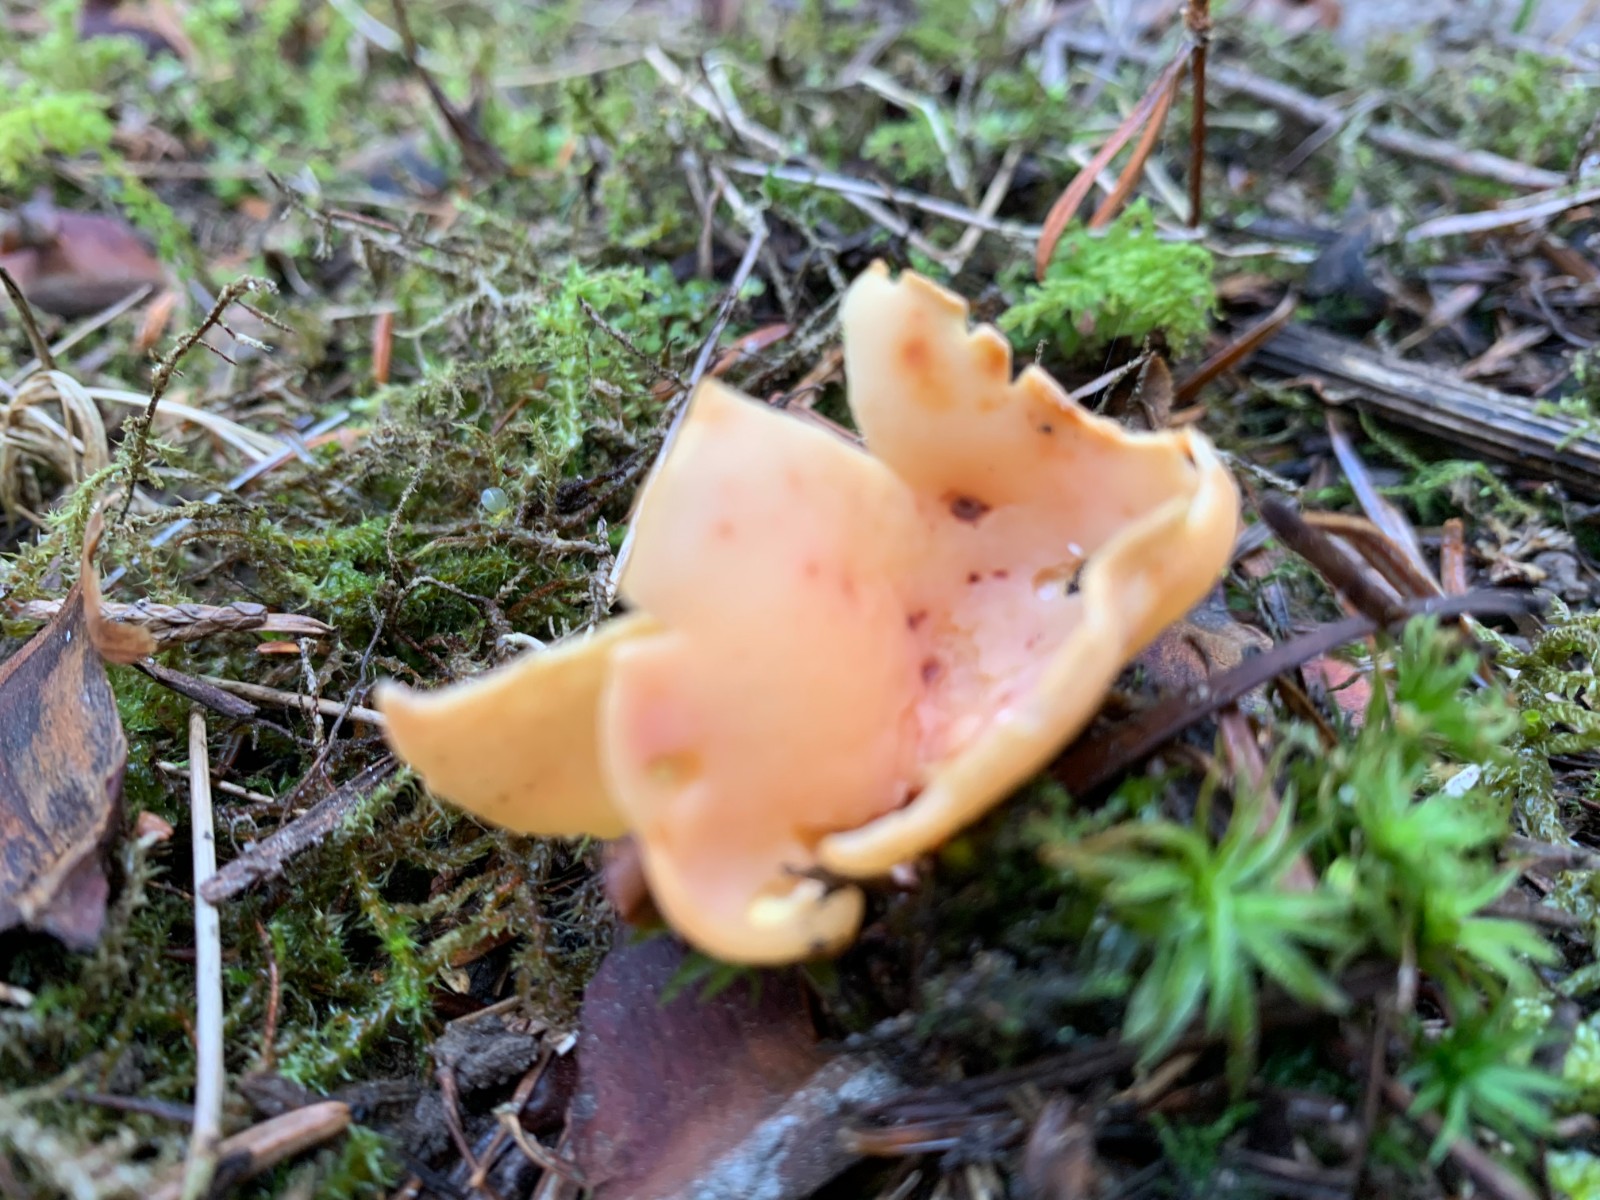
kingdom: Fungi
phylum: Ascomycota
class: Pezizomycetes
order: Pezizales
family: Otideaceae
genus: Otidea
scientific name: Otidea onotica
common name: æsel-ørebæger
